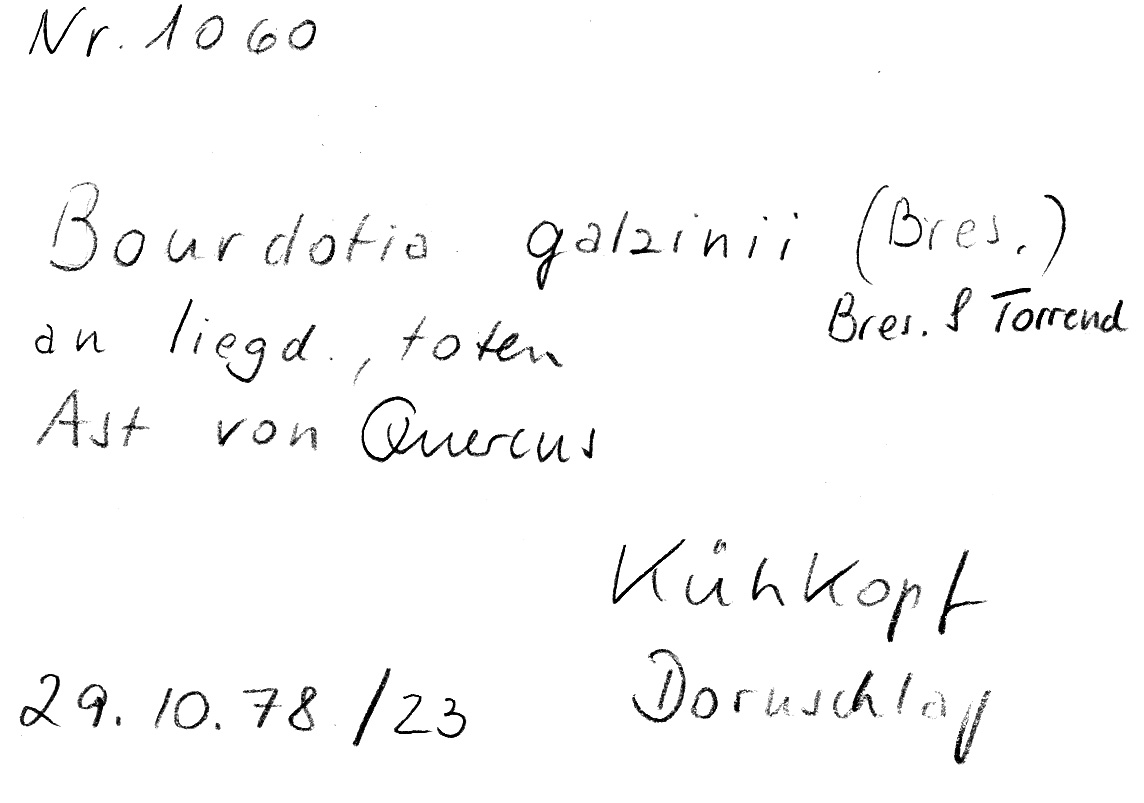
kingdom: Plantae
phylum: Tracheophyta
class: Magnoliopsida
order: Fagales
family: Fagaceae
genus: Quercus
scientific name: Quercus
